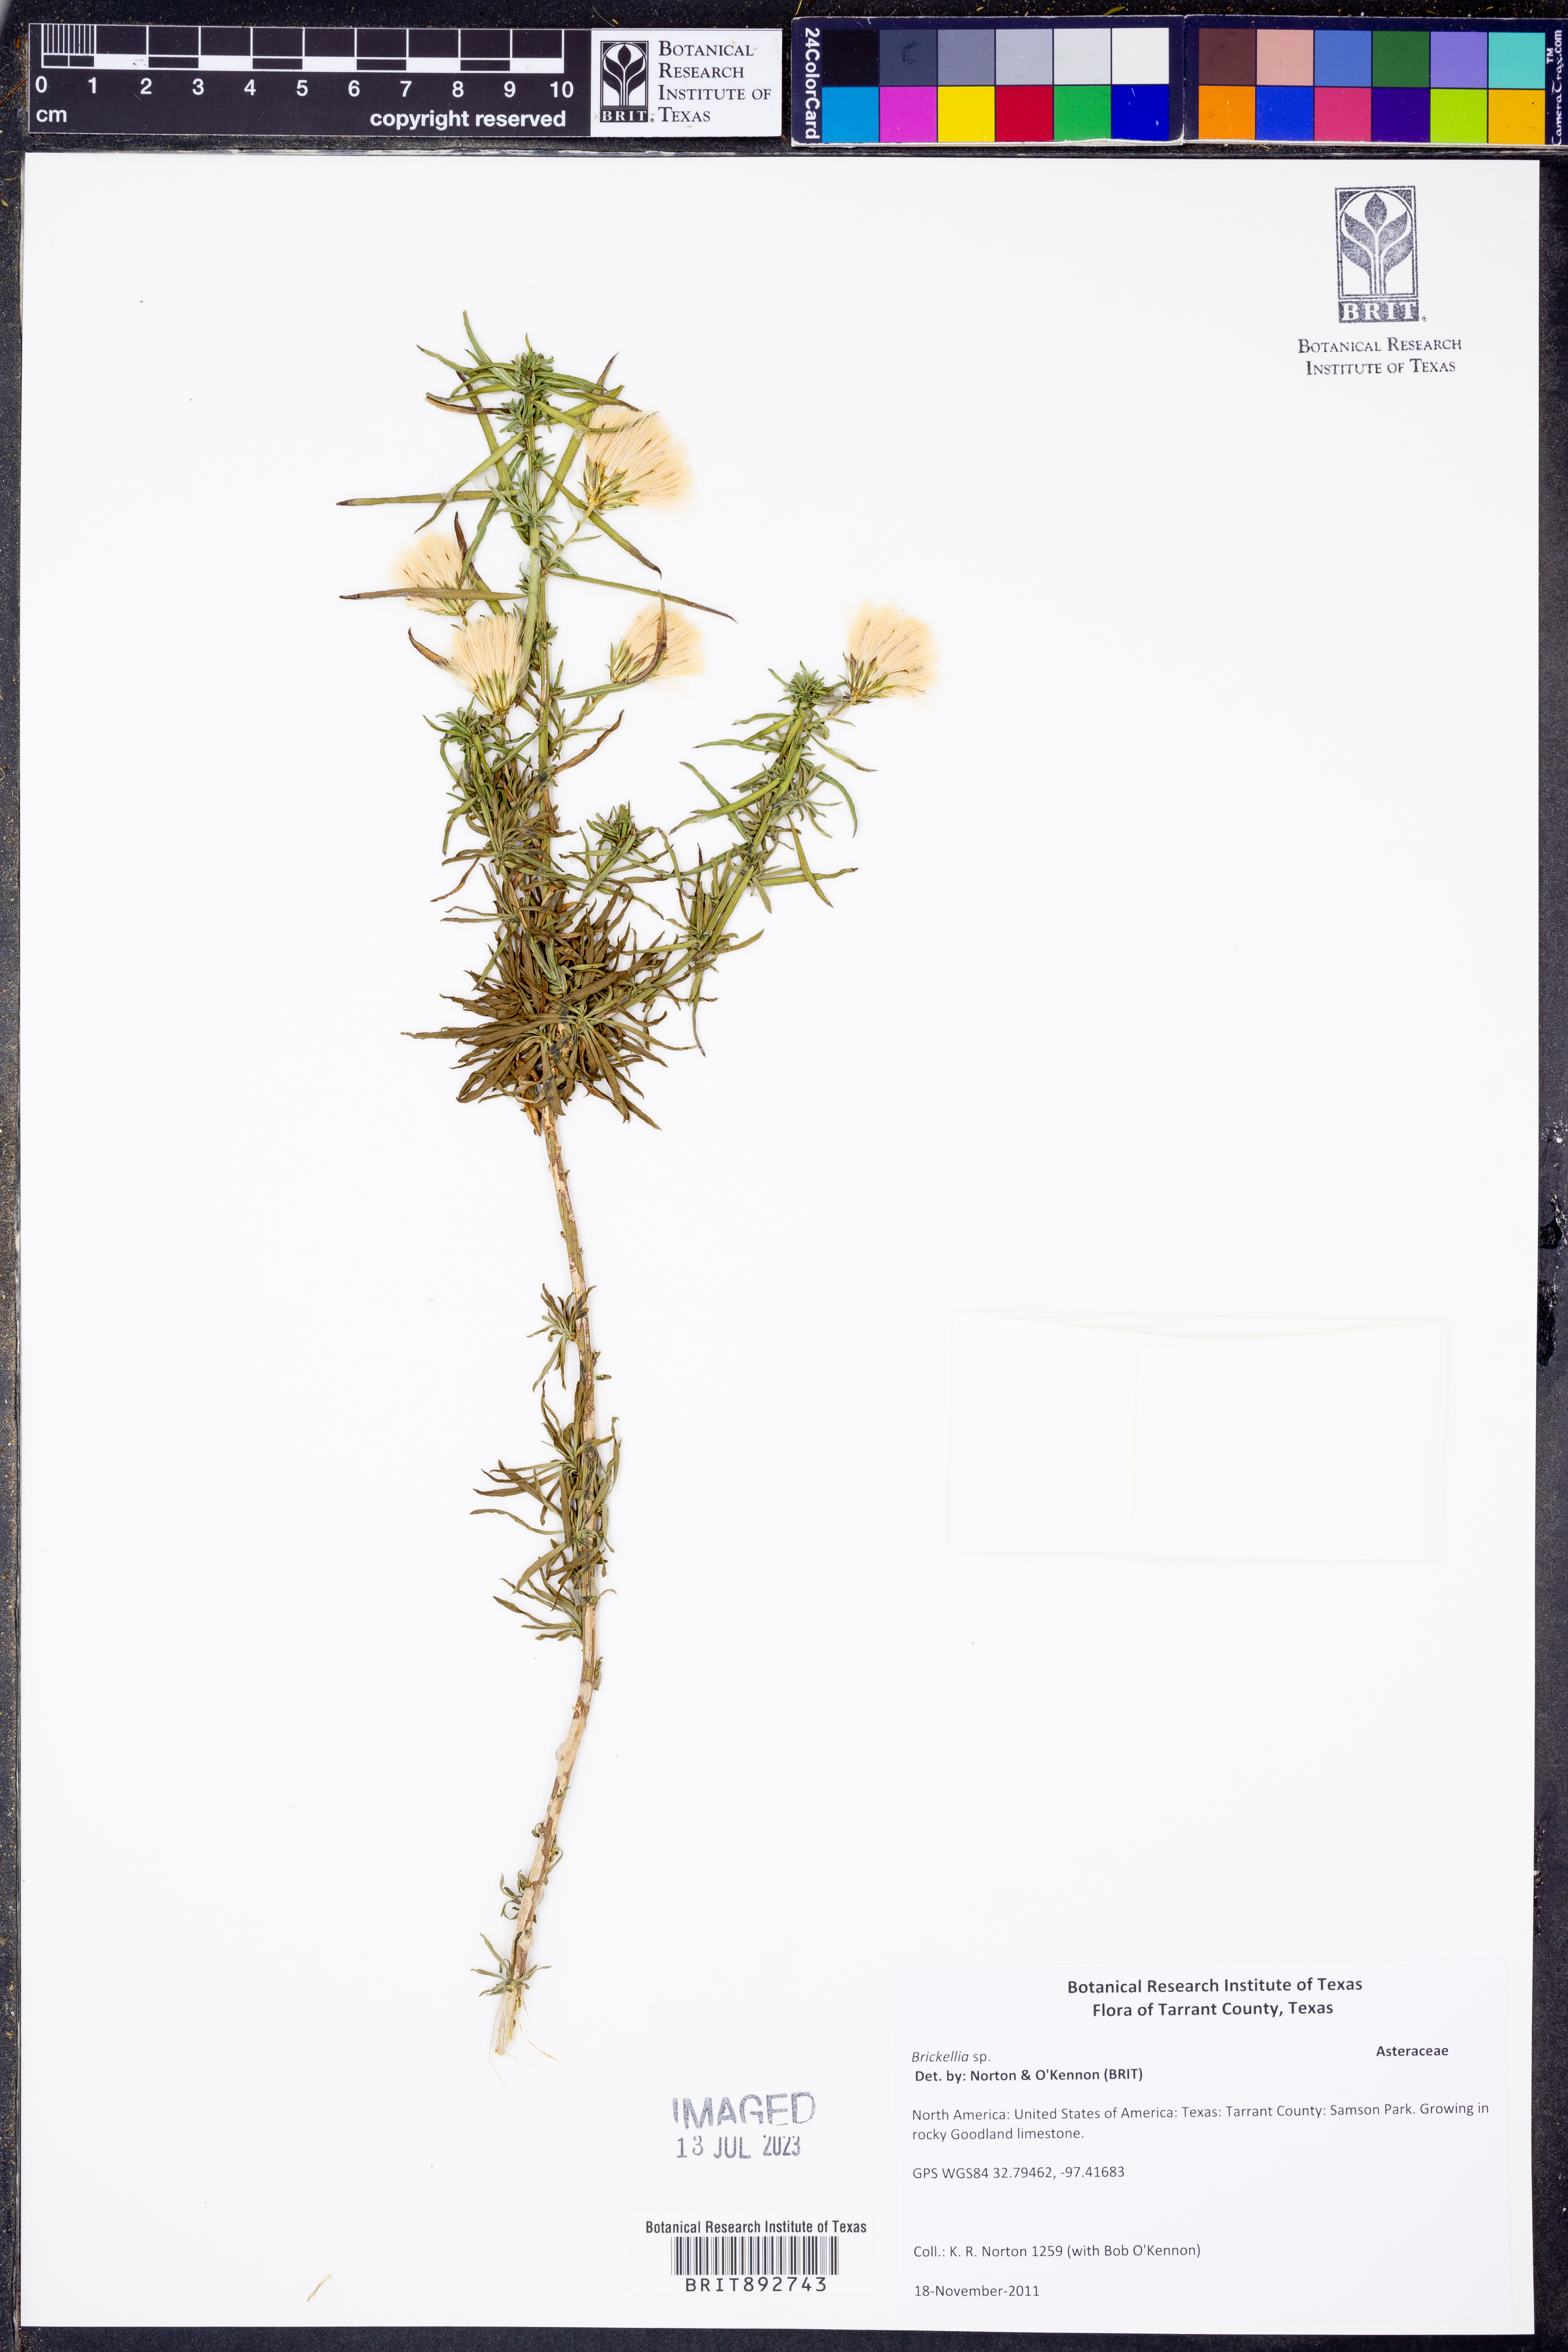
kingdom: Plantae
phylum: Tracheophyta
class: Magnoliopsida
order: Asterales
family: Asteraceae
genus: Brickellia
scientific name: Brickellia
